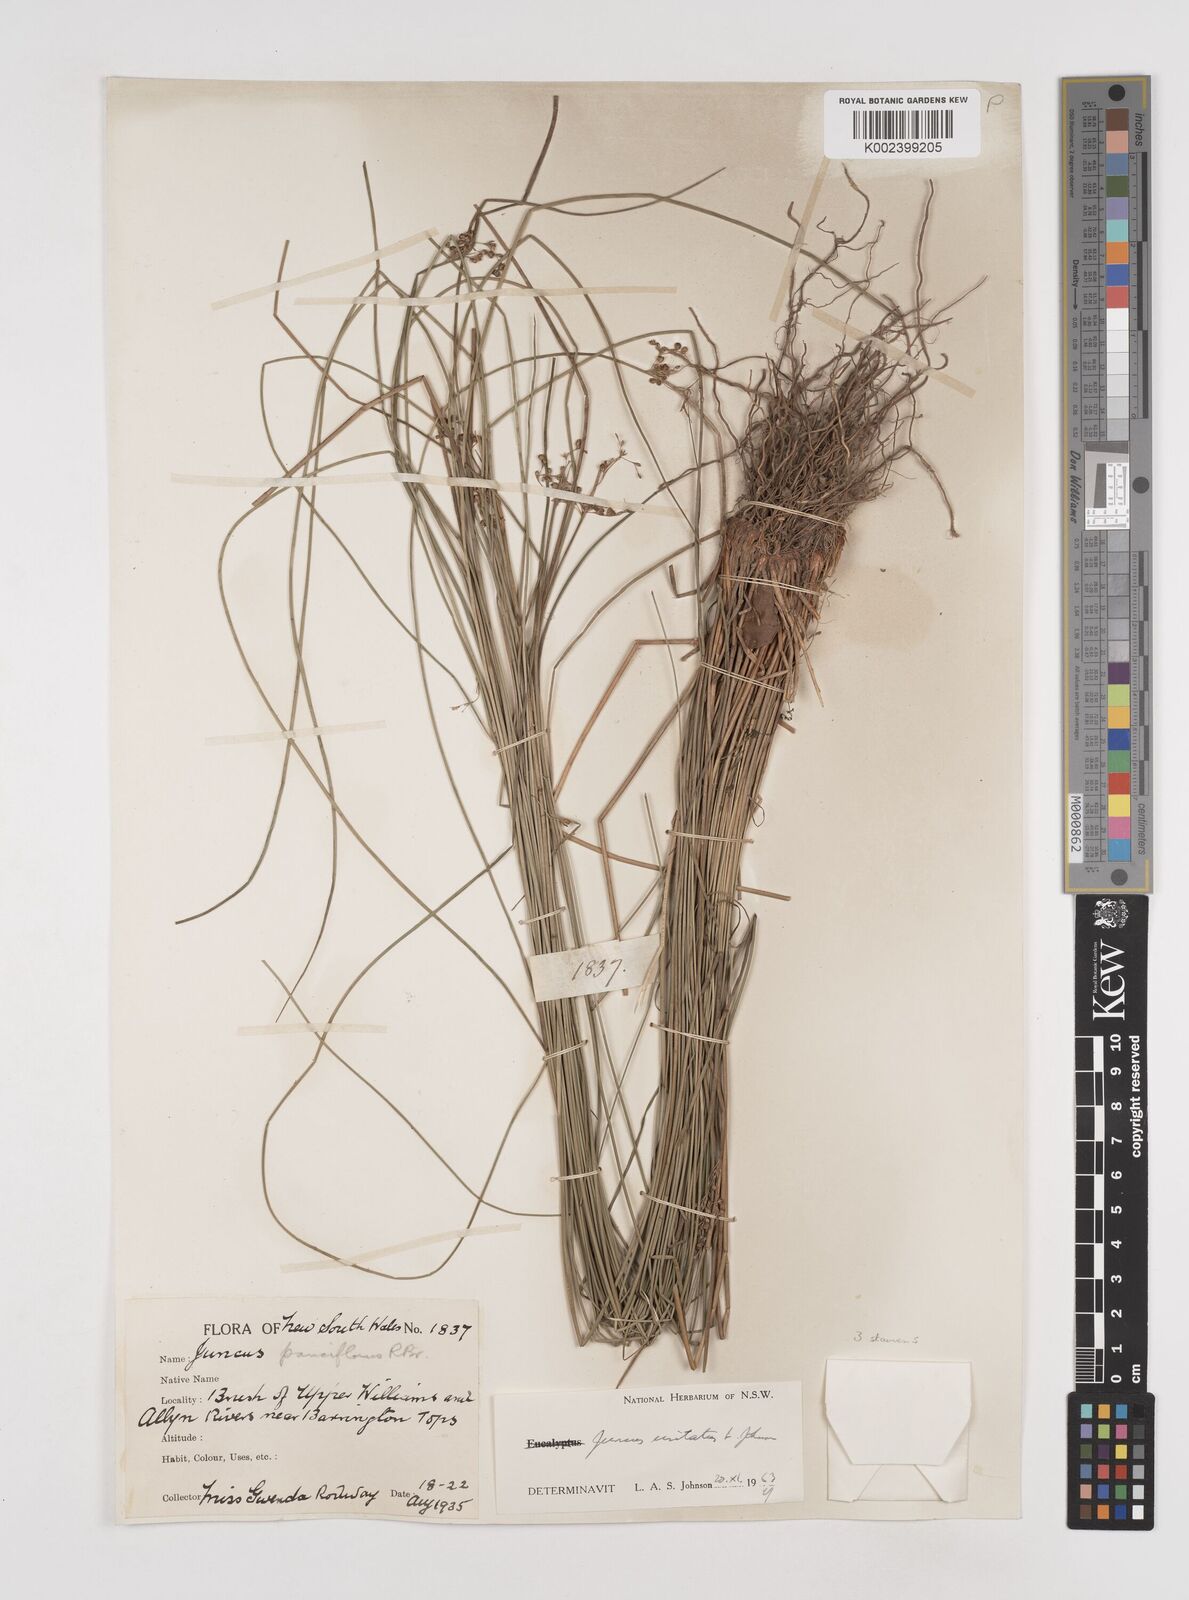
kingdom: Plantae
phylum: Tracheophyta
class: Liliopsida
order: Poales
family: Juncaceae
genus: Juncus
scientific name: Juncus usitatus
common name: Rush
